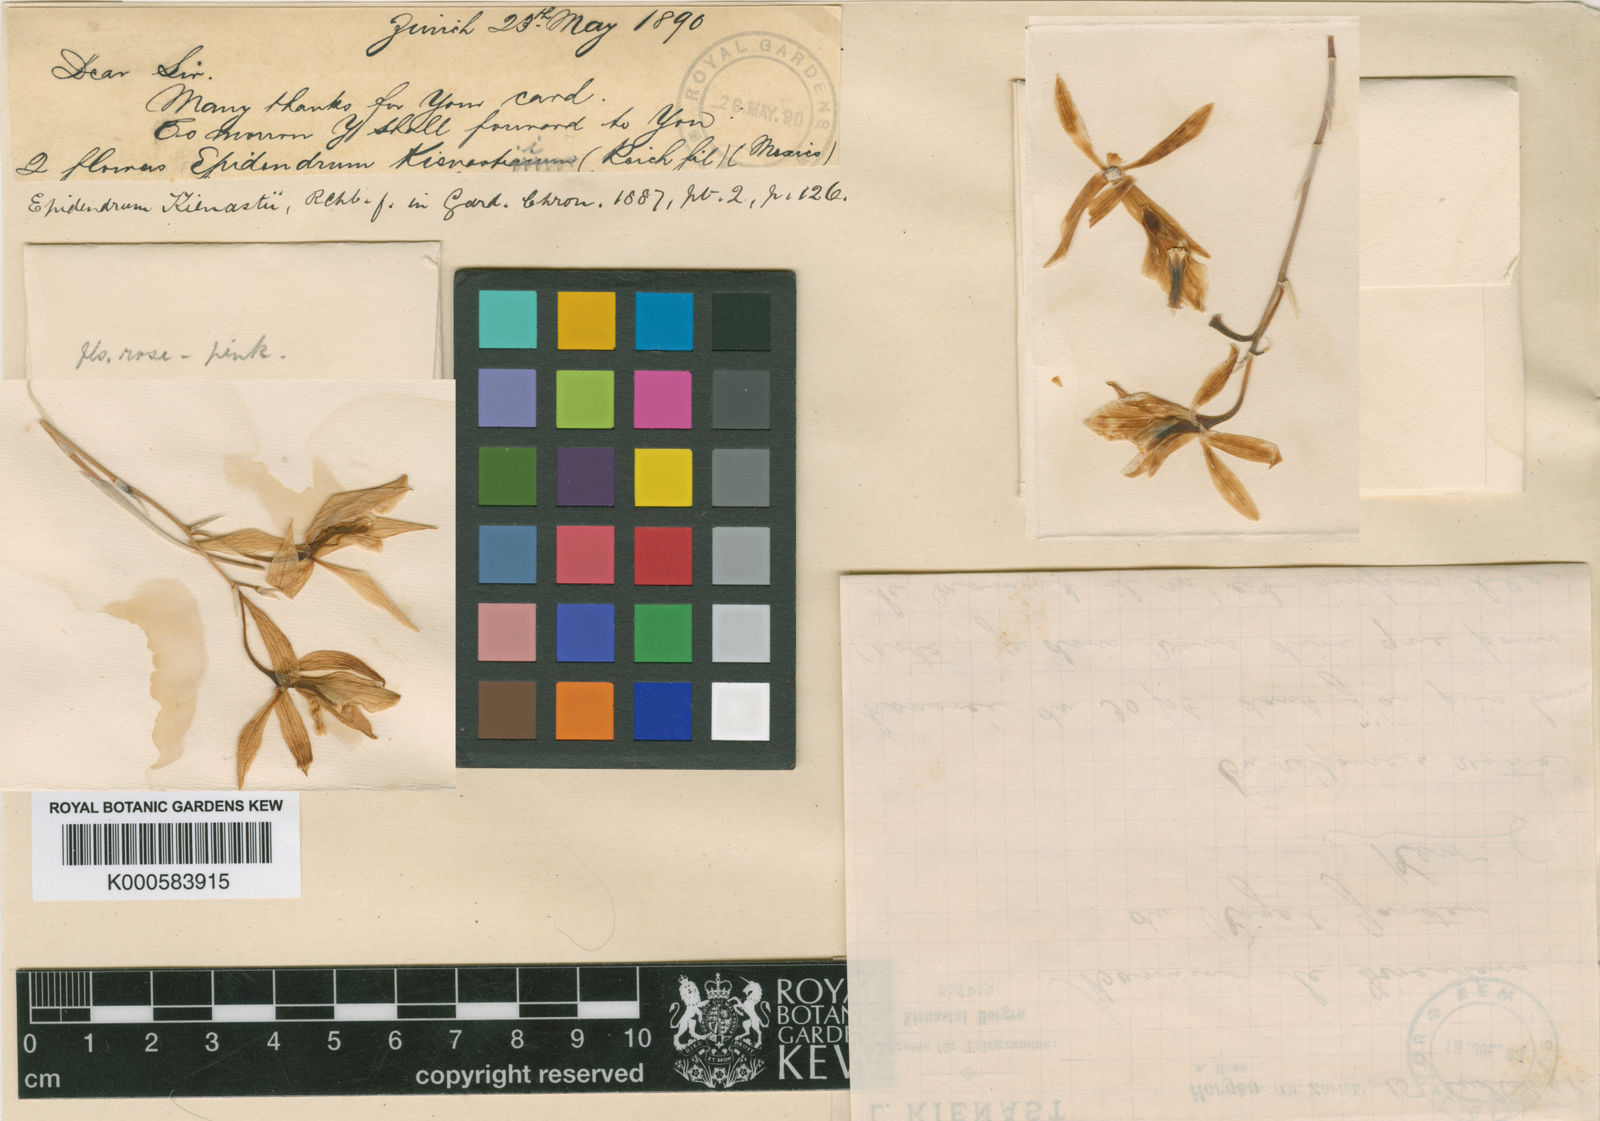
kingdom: Plantae
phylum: Tracheophyta
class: Liliopsida
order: Asparagales
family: Orchidaceae
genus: Amoana
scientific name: Amoana kienastii
